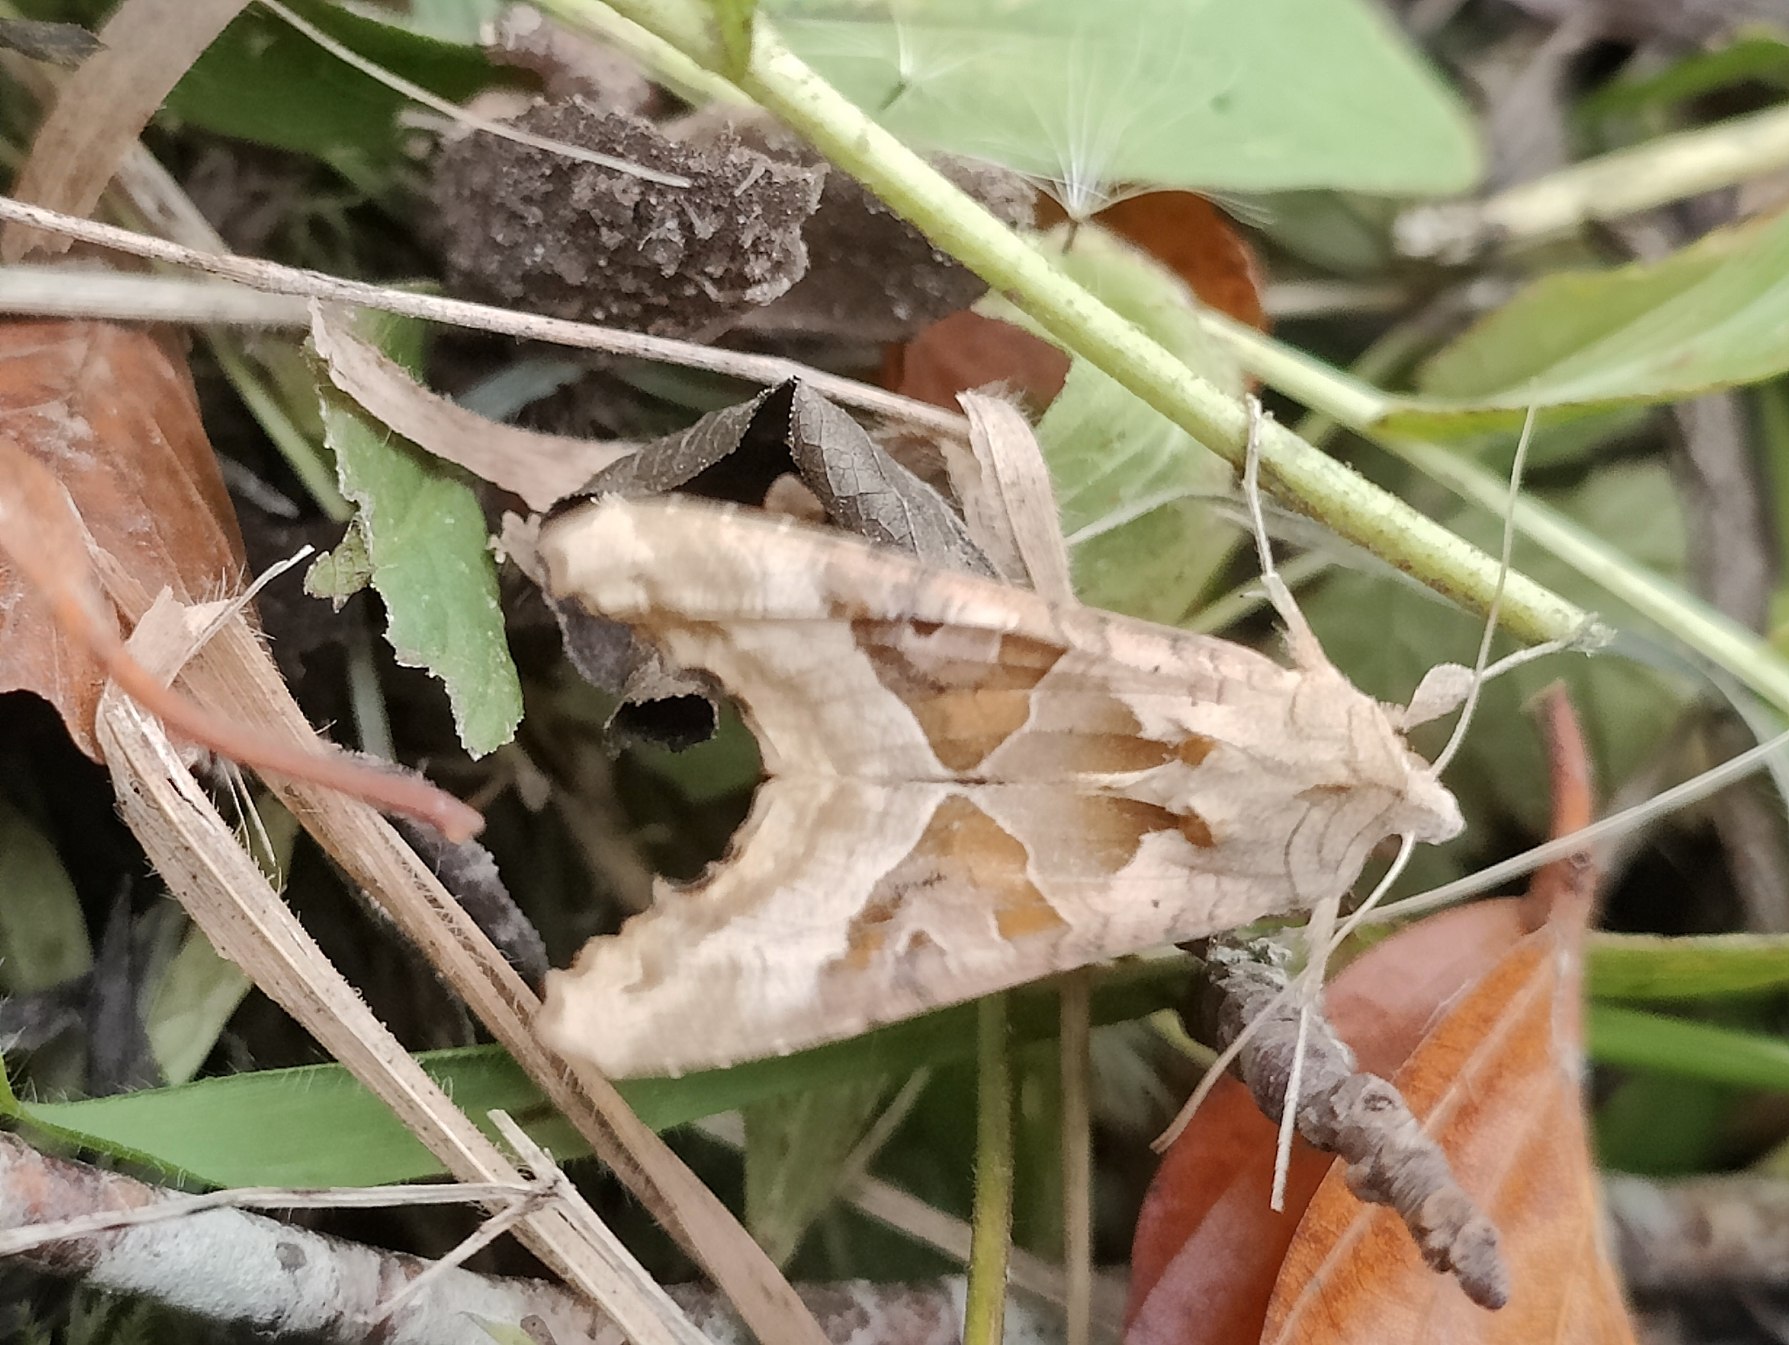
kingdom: Animalia
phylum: Arthropoda
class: Insecta
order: Lepidoptera
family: Noctuidae
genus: Phlogophora
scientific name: Phlogophora meticulosa
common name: Agatugle
